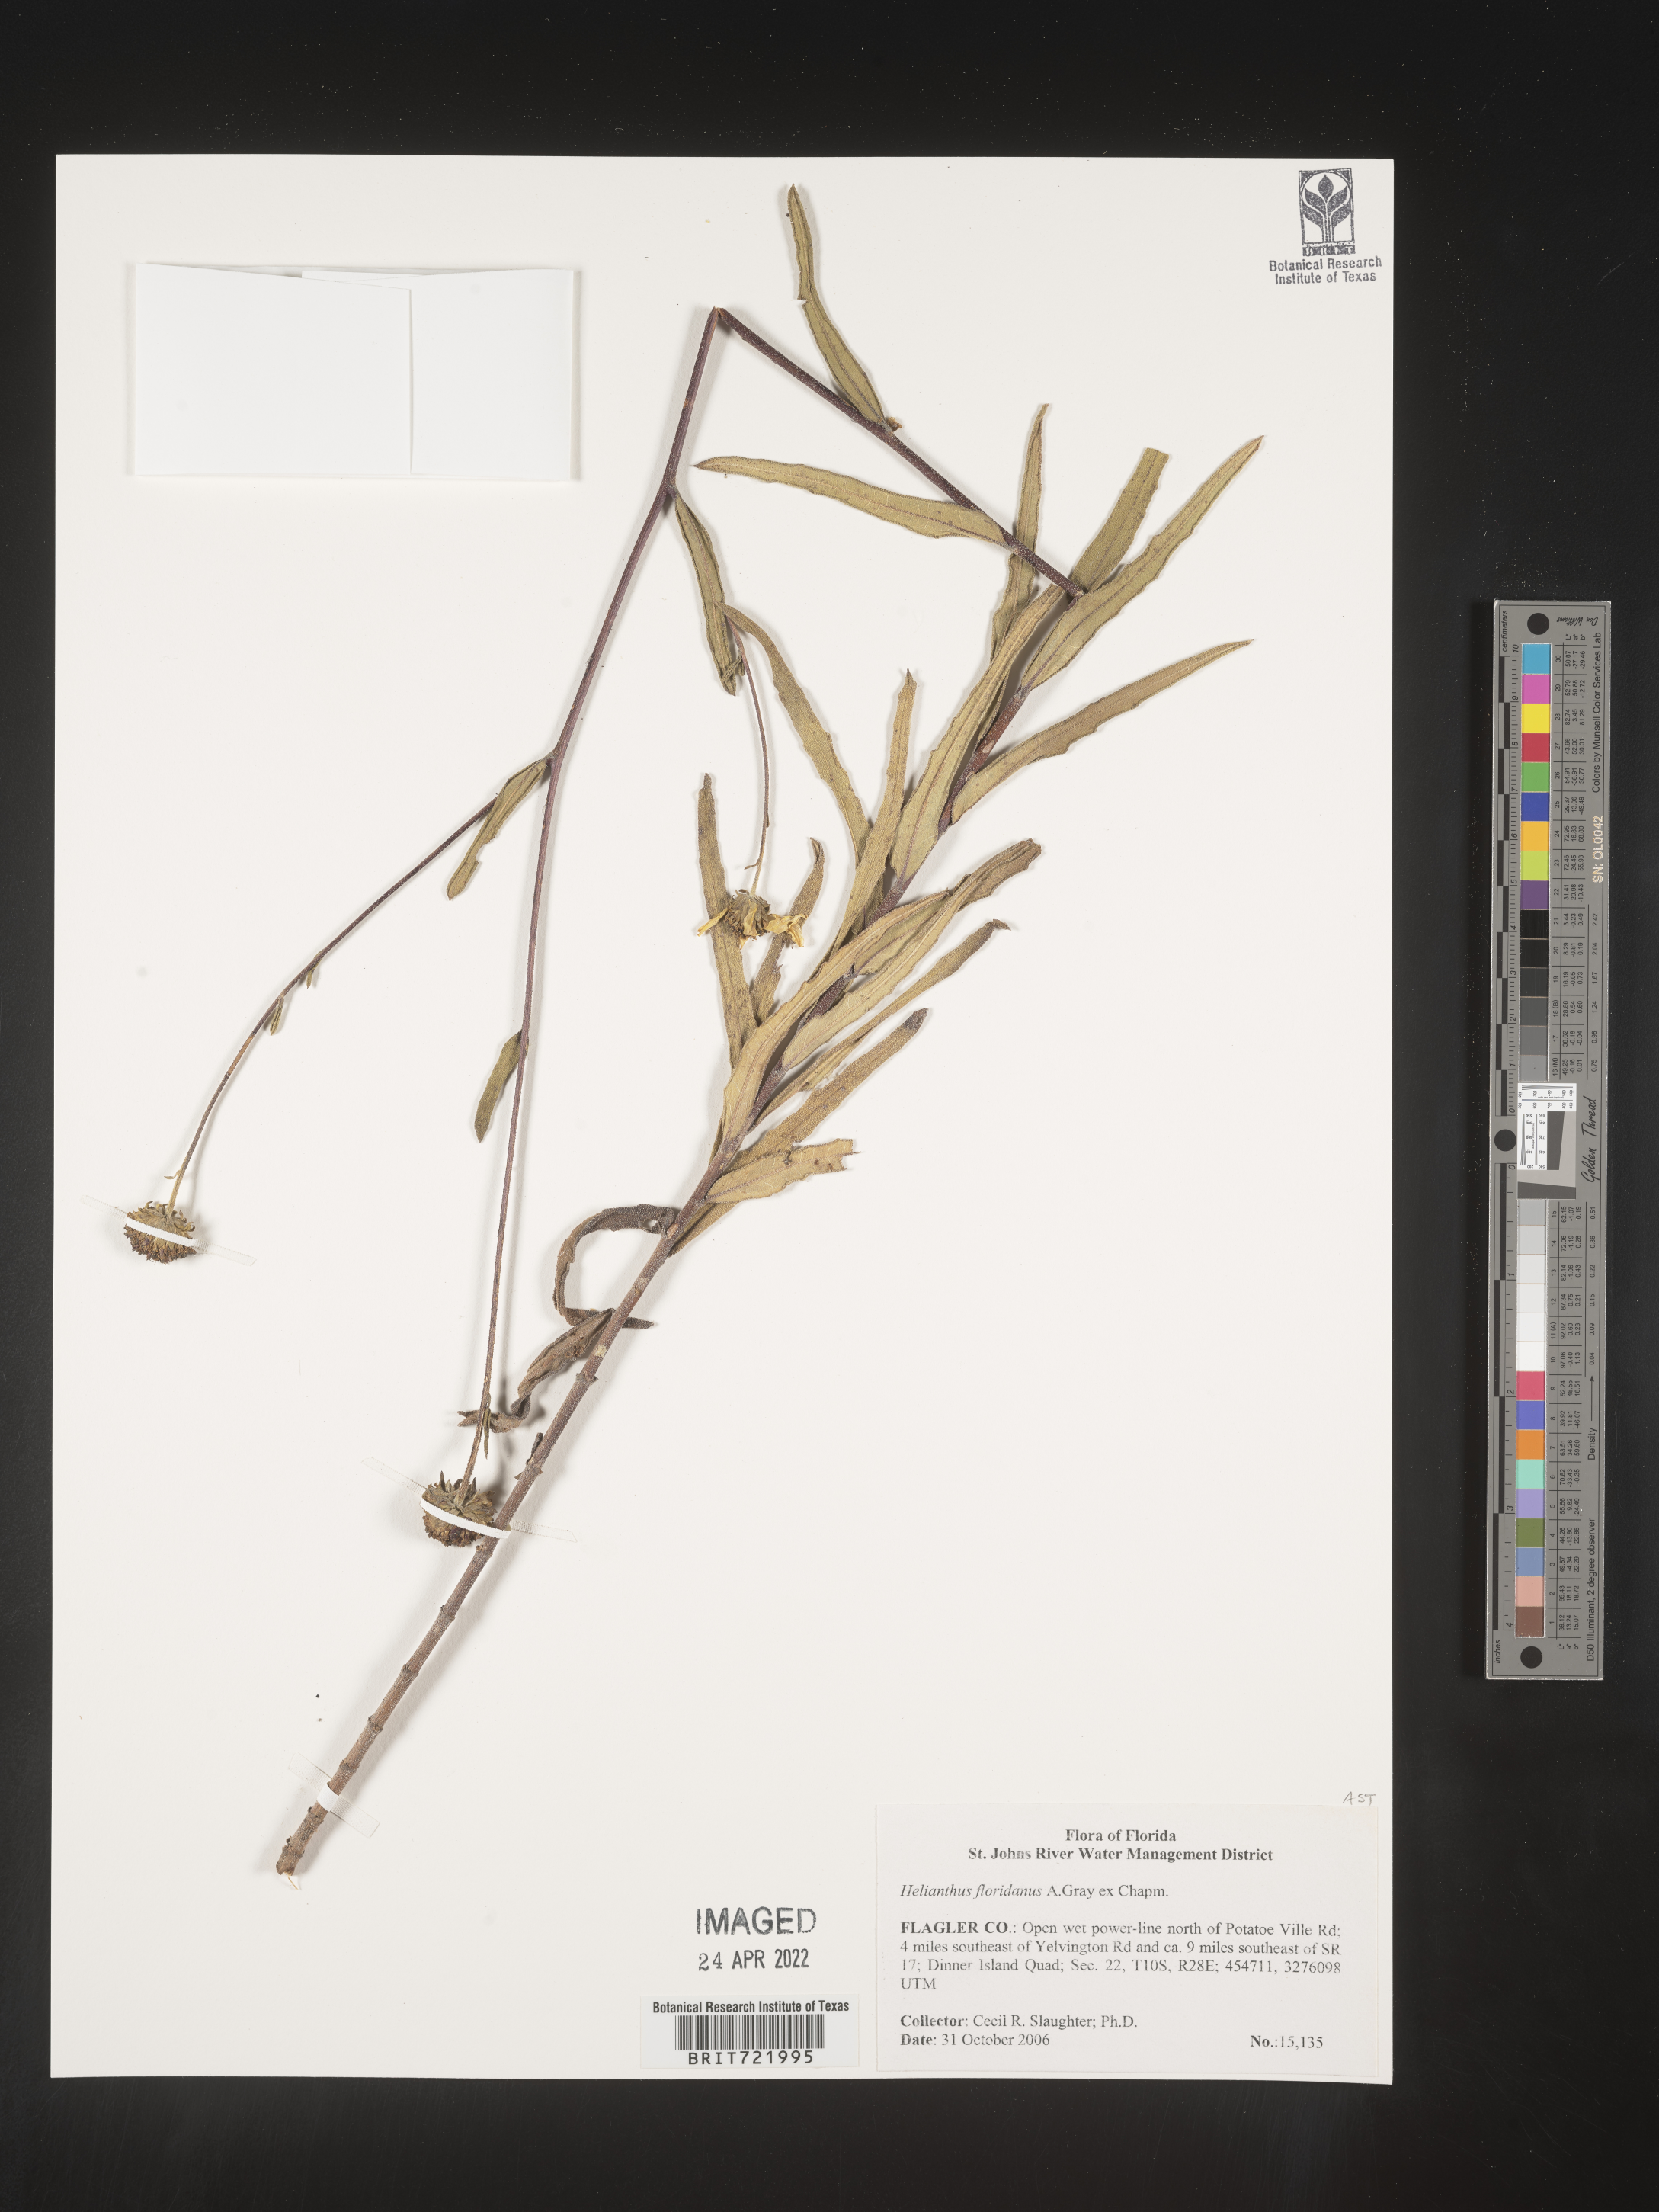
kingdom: Plantae
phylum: Tracheophyta
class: Magnoliopsida
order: Asterales
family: Asteraceae
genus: Helianthus
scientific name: Helianthus
